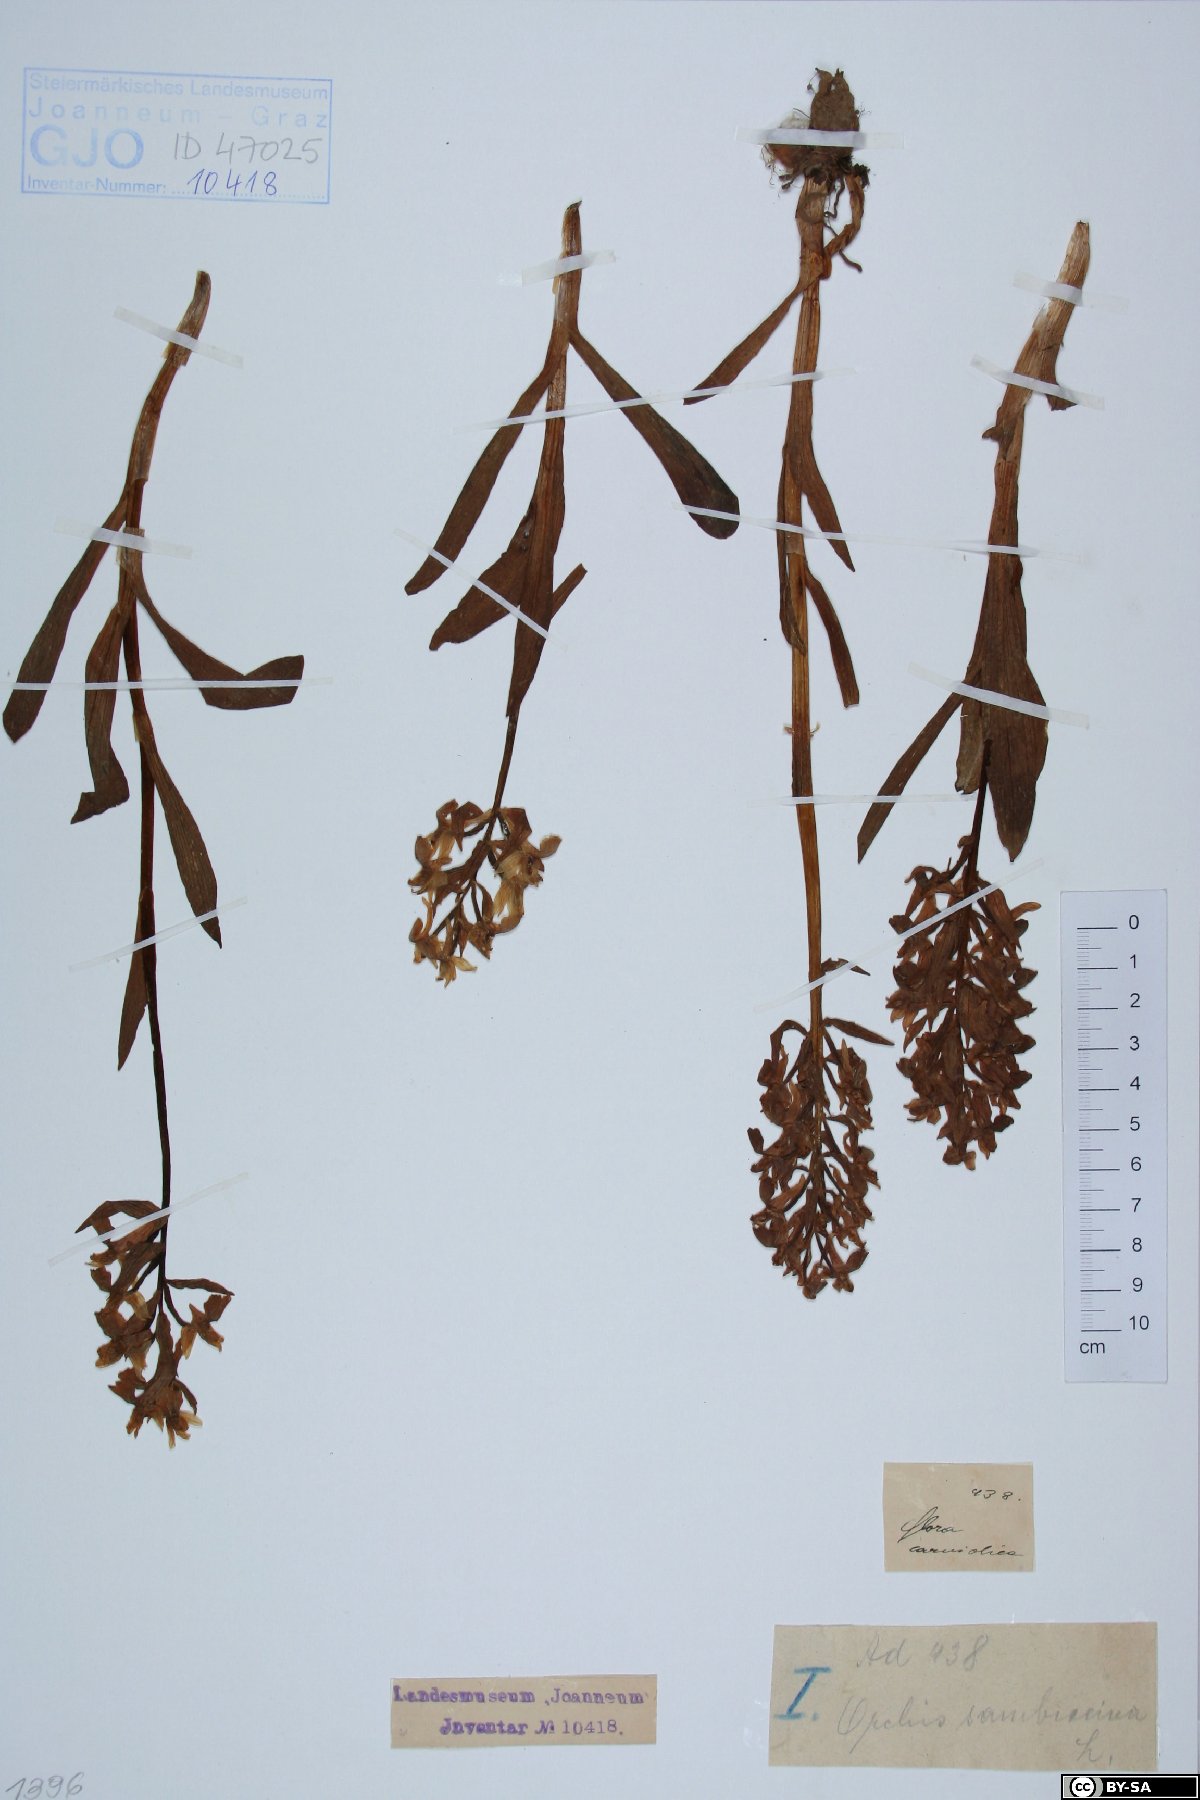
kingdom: Plantae
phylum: Tracheophyta
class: Liliopsida
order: Asparagales
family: Orchidaceae
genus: Dactylorhiza
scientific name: Dactylorhiza sambucina
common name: Elder-flowered orchid
